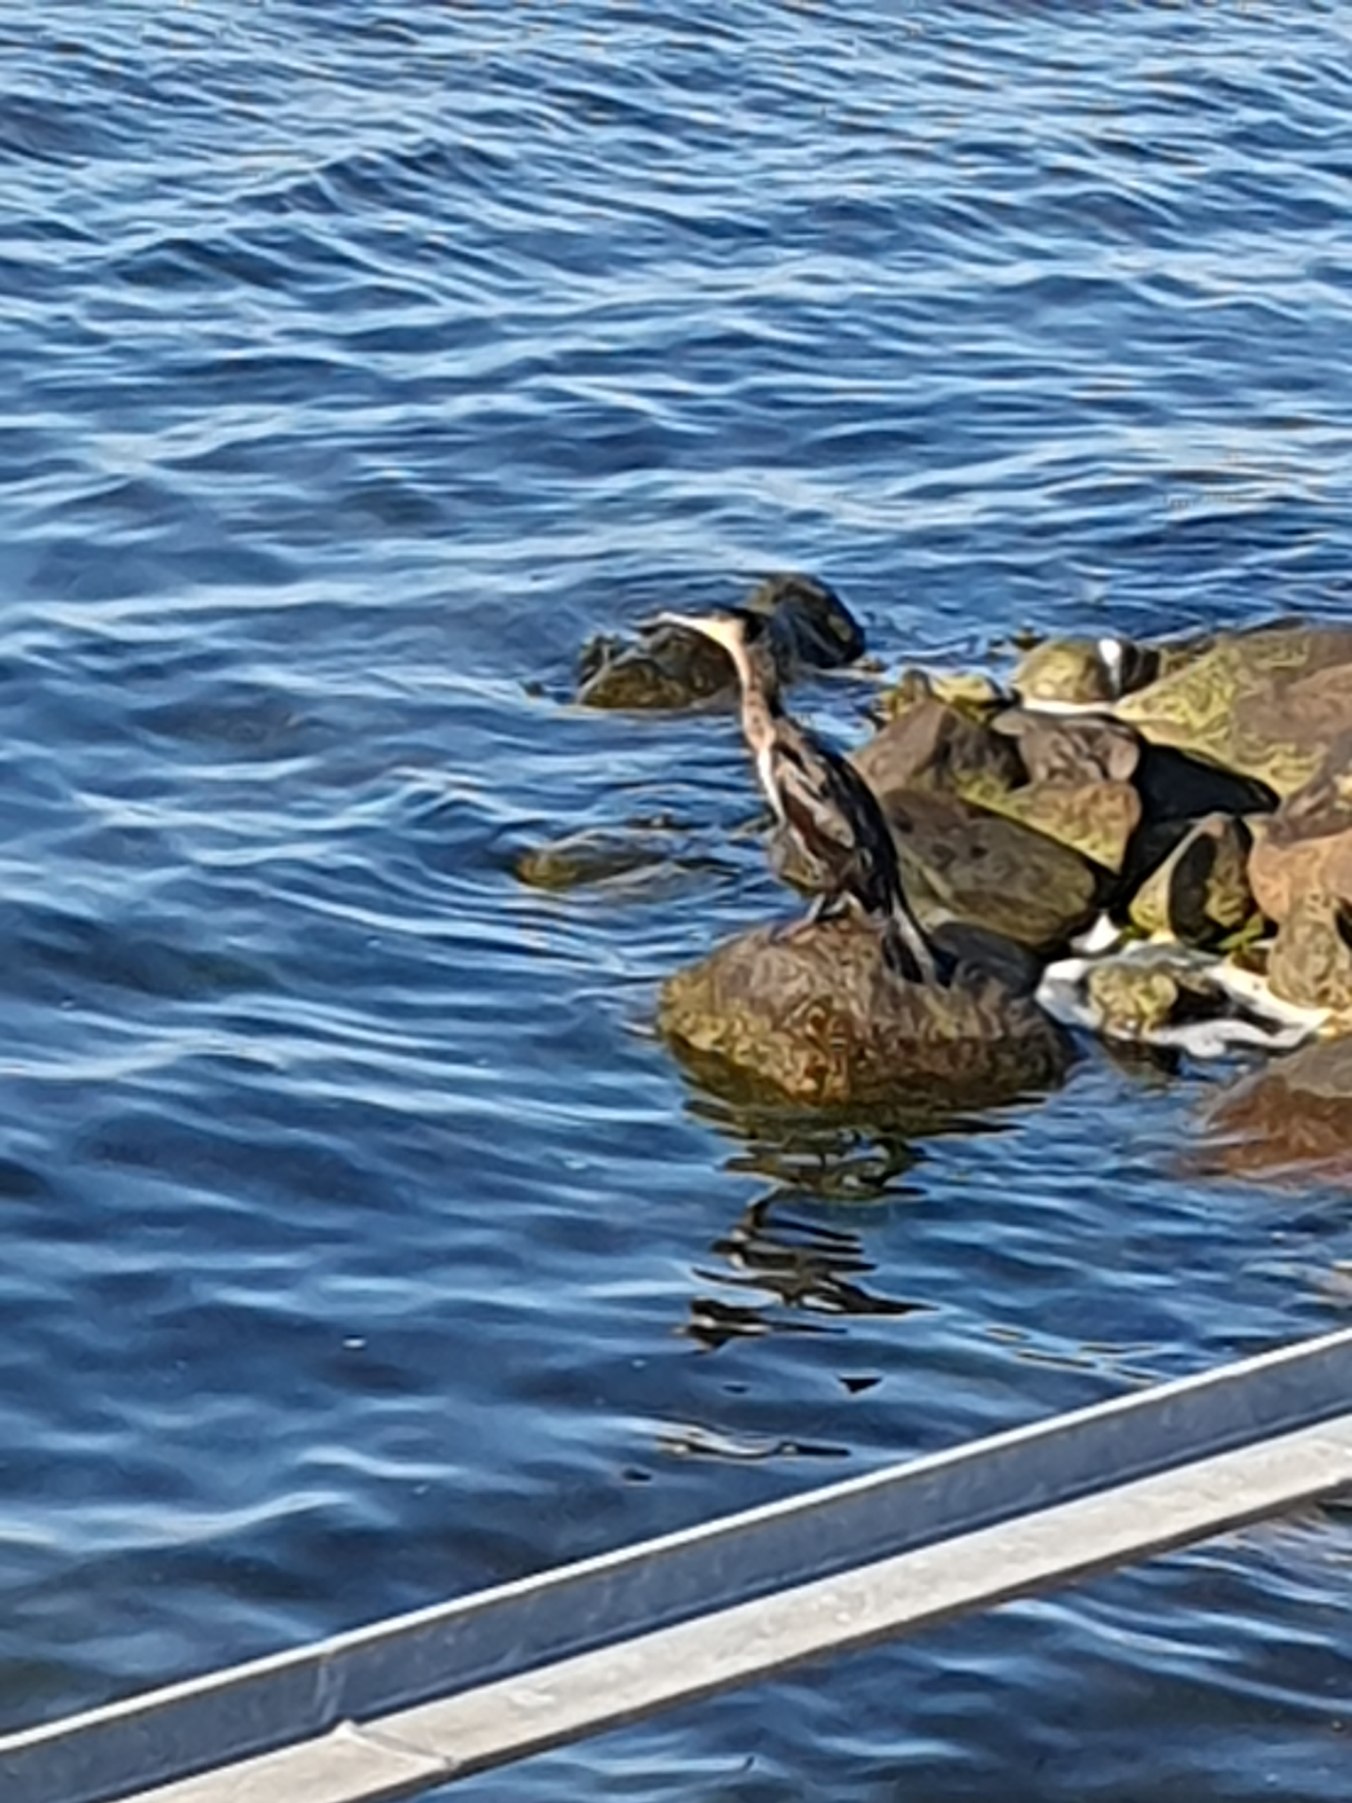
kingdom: Animalia
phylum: Chordata
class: Aves
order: Suliformes
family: Phalacrocoracidae
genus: Phalacrocorax
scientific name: Phalacrocorax carbo
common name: Skarv
